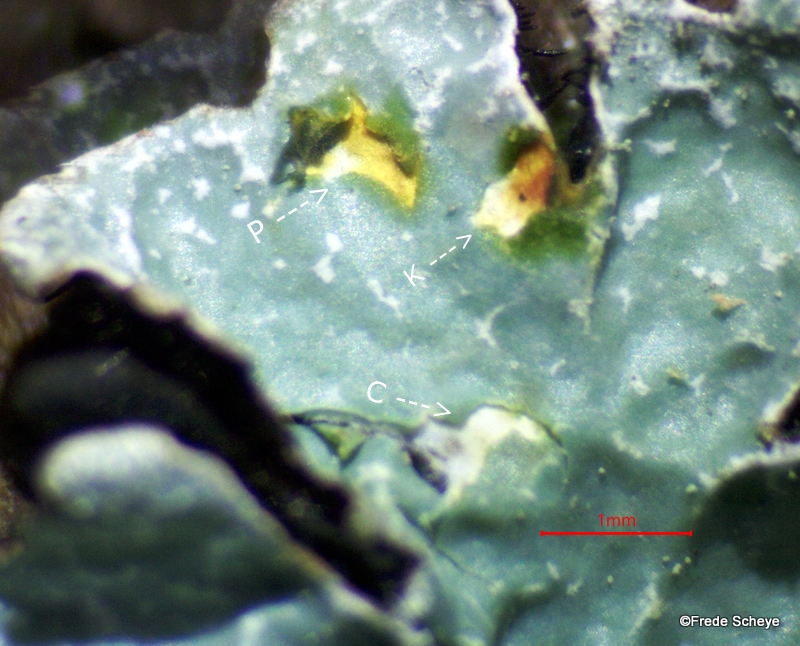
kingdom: Fungi
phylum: Ascomycota
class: Lecanoromycetes
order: Lecanorales
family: Parmeliaceae
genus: Parmelia
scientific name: Parmelia sulcata
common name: rynket skållav
